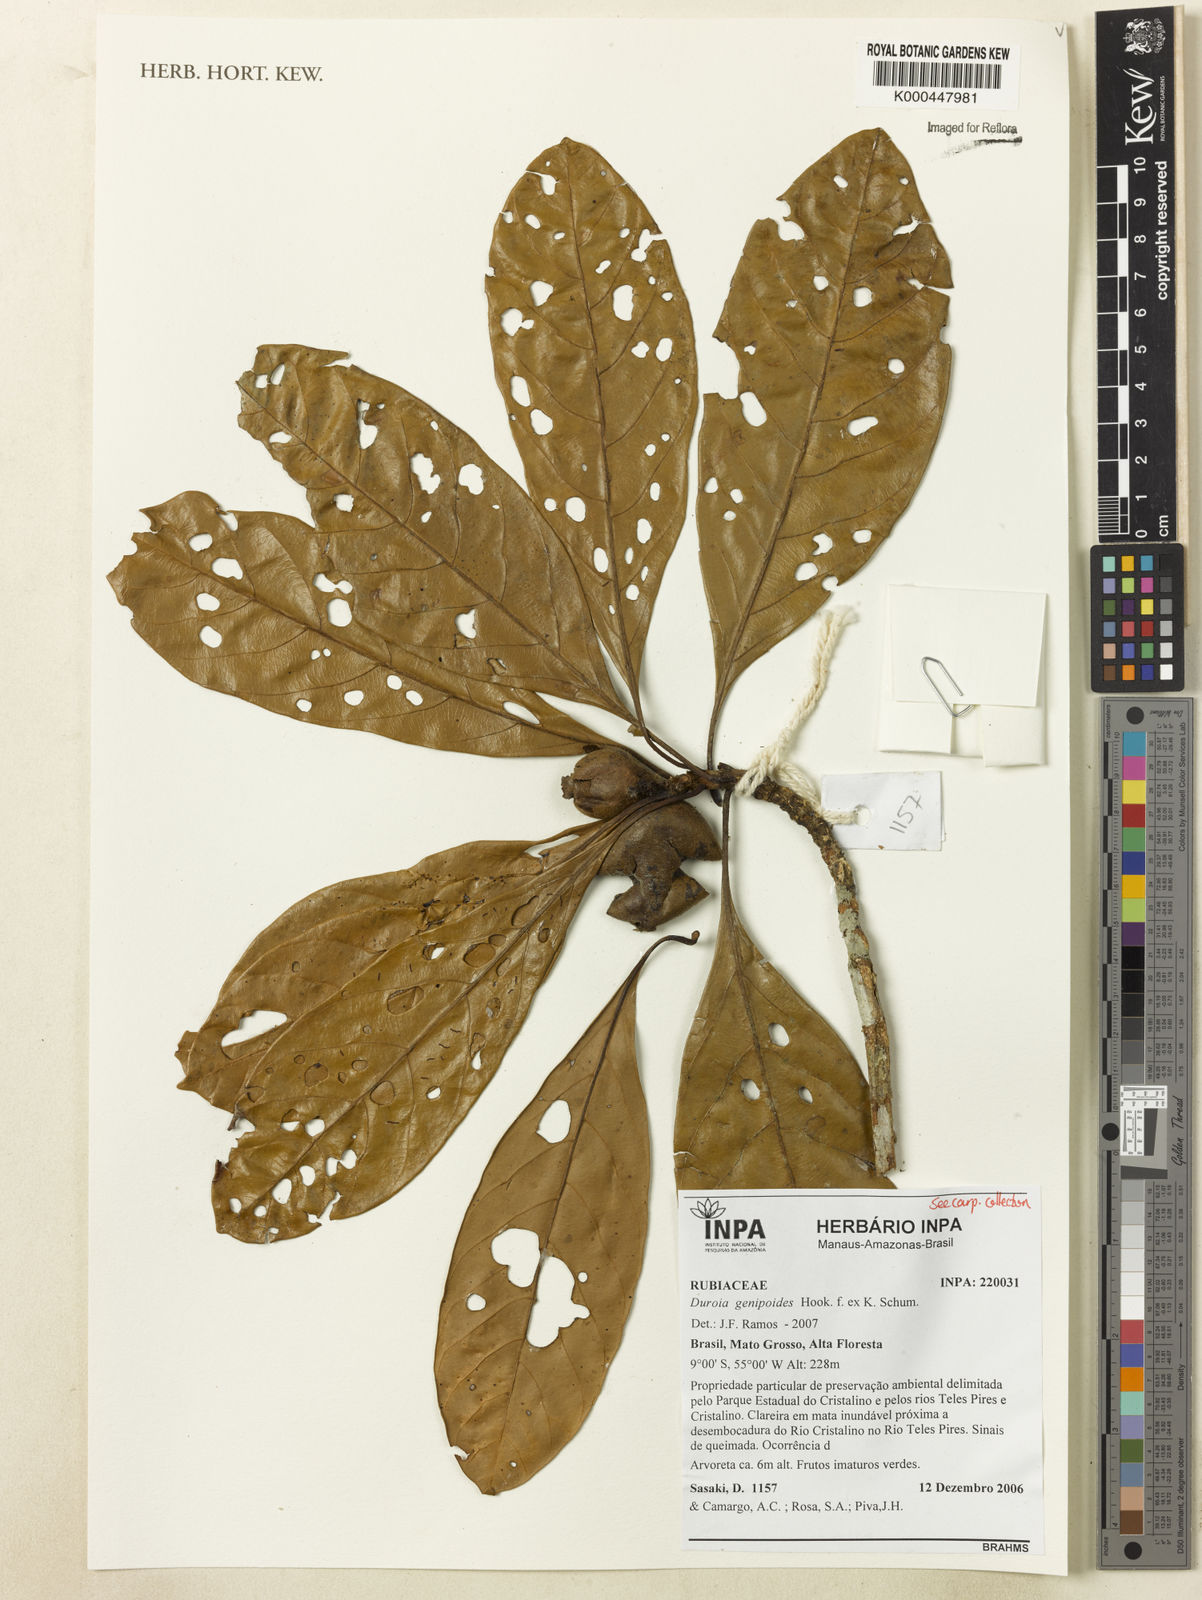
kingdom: Plantae
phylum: Tracheophyta
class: Magnoliopsida
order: Gentianales
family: Rubiaceae
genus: Duroia
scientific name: Duroia genipoides
